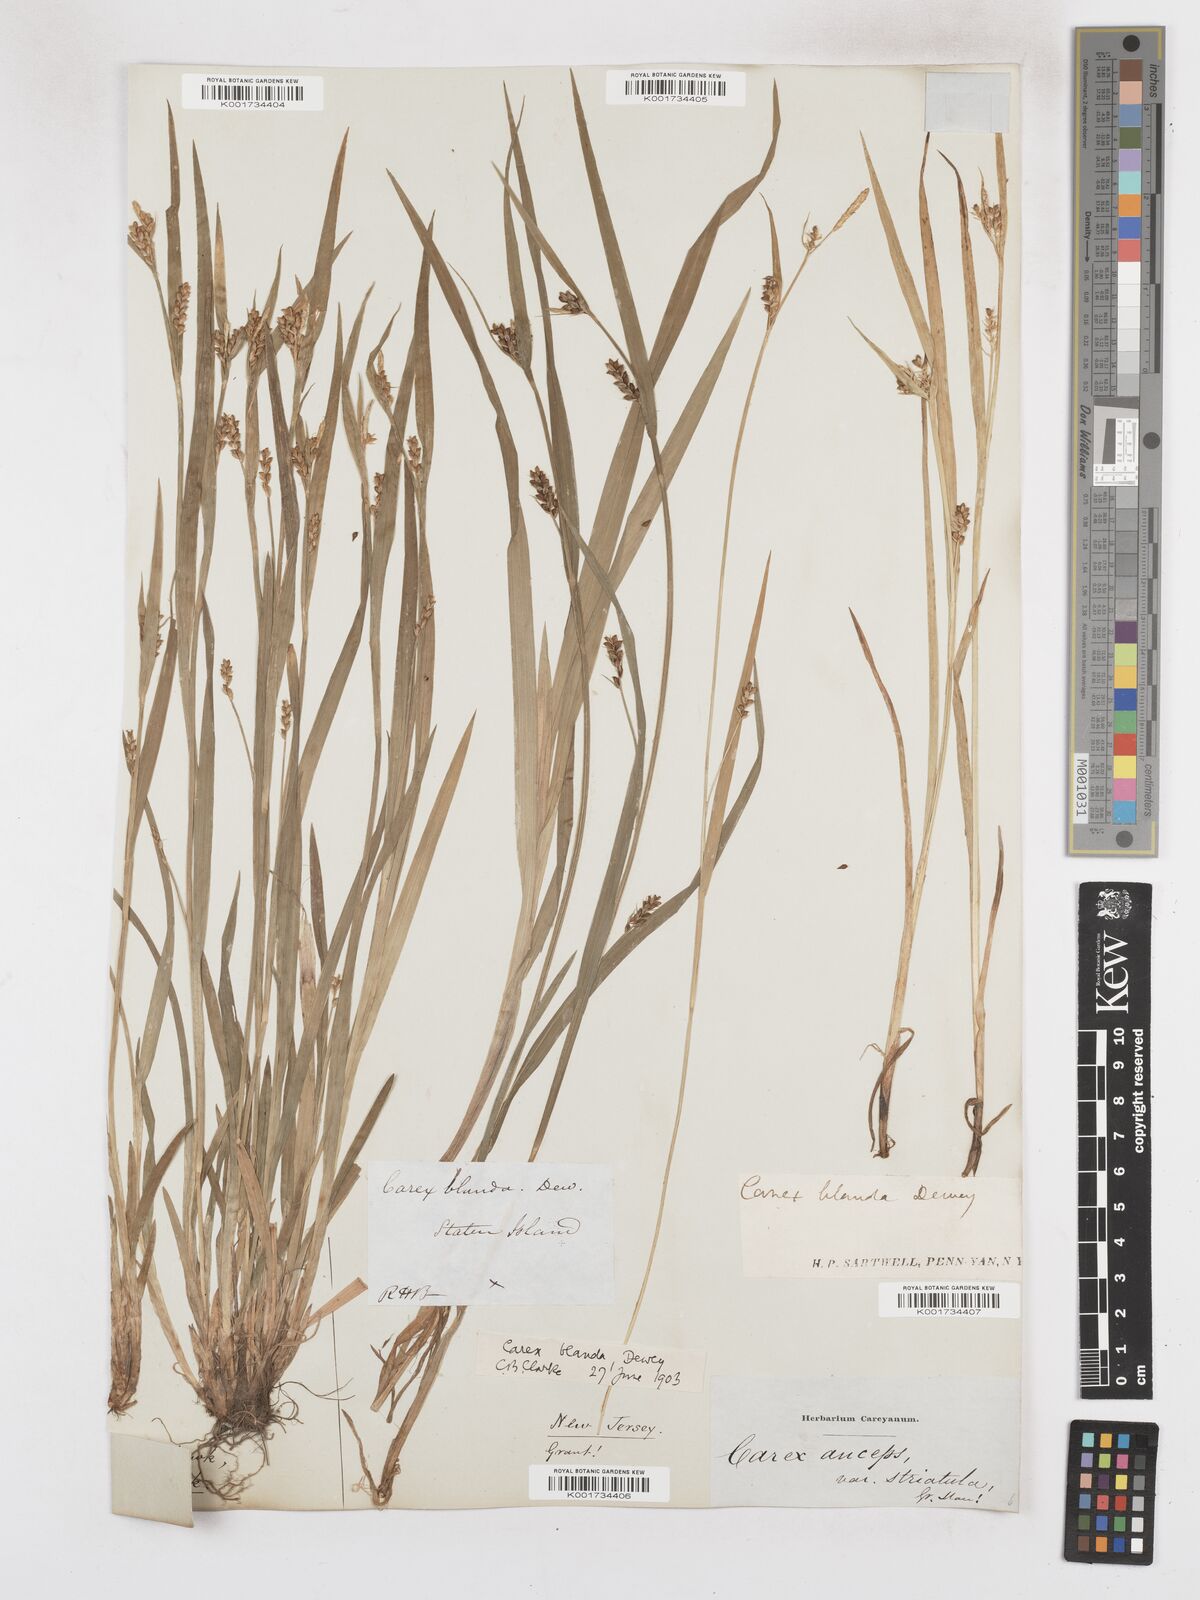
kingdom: Plantae
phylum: Tracheophyta
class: Liliopsida
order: Poales
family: Cyperaceae
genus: Carex
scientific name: Carex blanda
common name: Bland sedge
